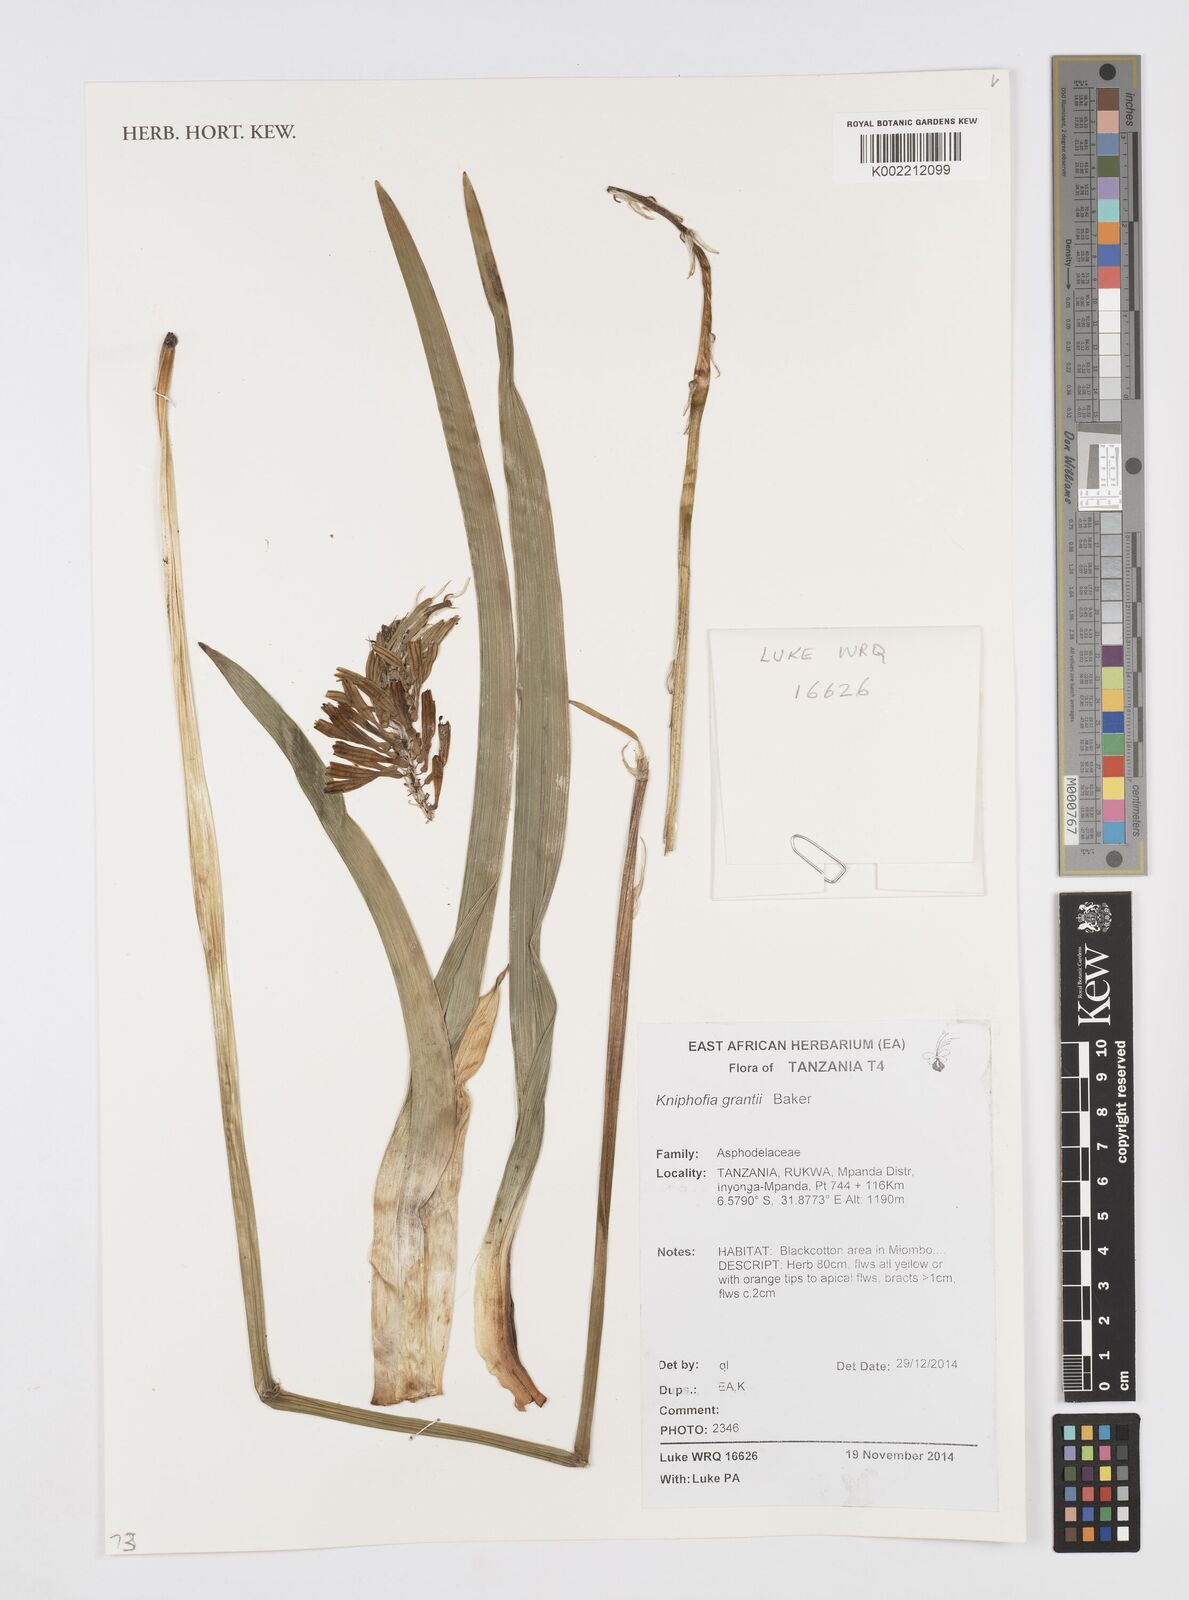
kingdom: Plantae
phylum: Tracheophyta
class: Liliopsida
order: Asparagales
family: Asphodelaceae
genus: Kniphofia
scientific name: Kniphofia grantii
